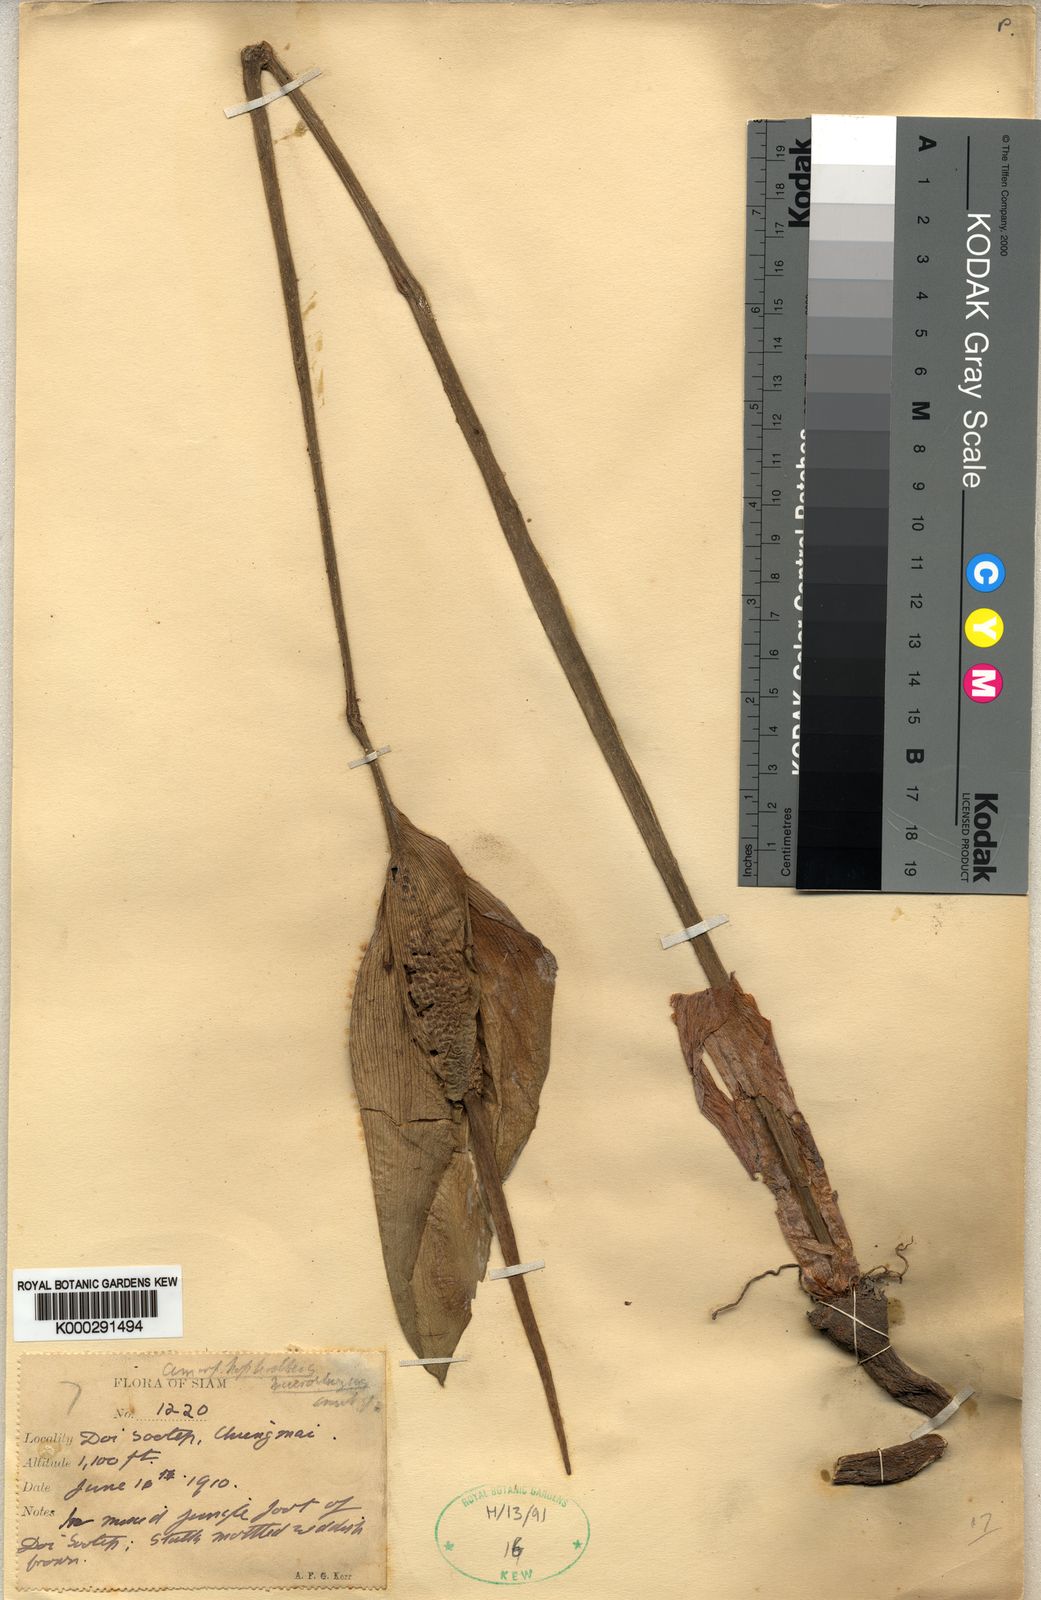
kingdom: Plantae
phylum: Tracheophyta
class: Liliopsida
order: Alismatales
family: Araceae
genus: Amorphophallus
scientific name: Amorphophallus macrorhizus
